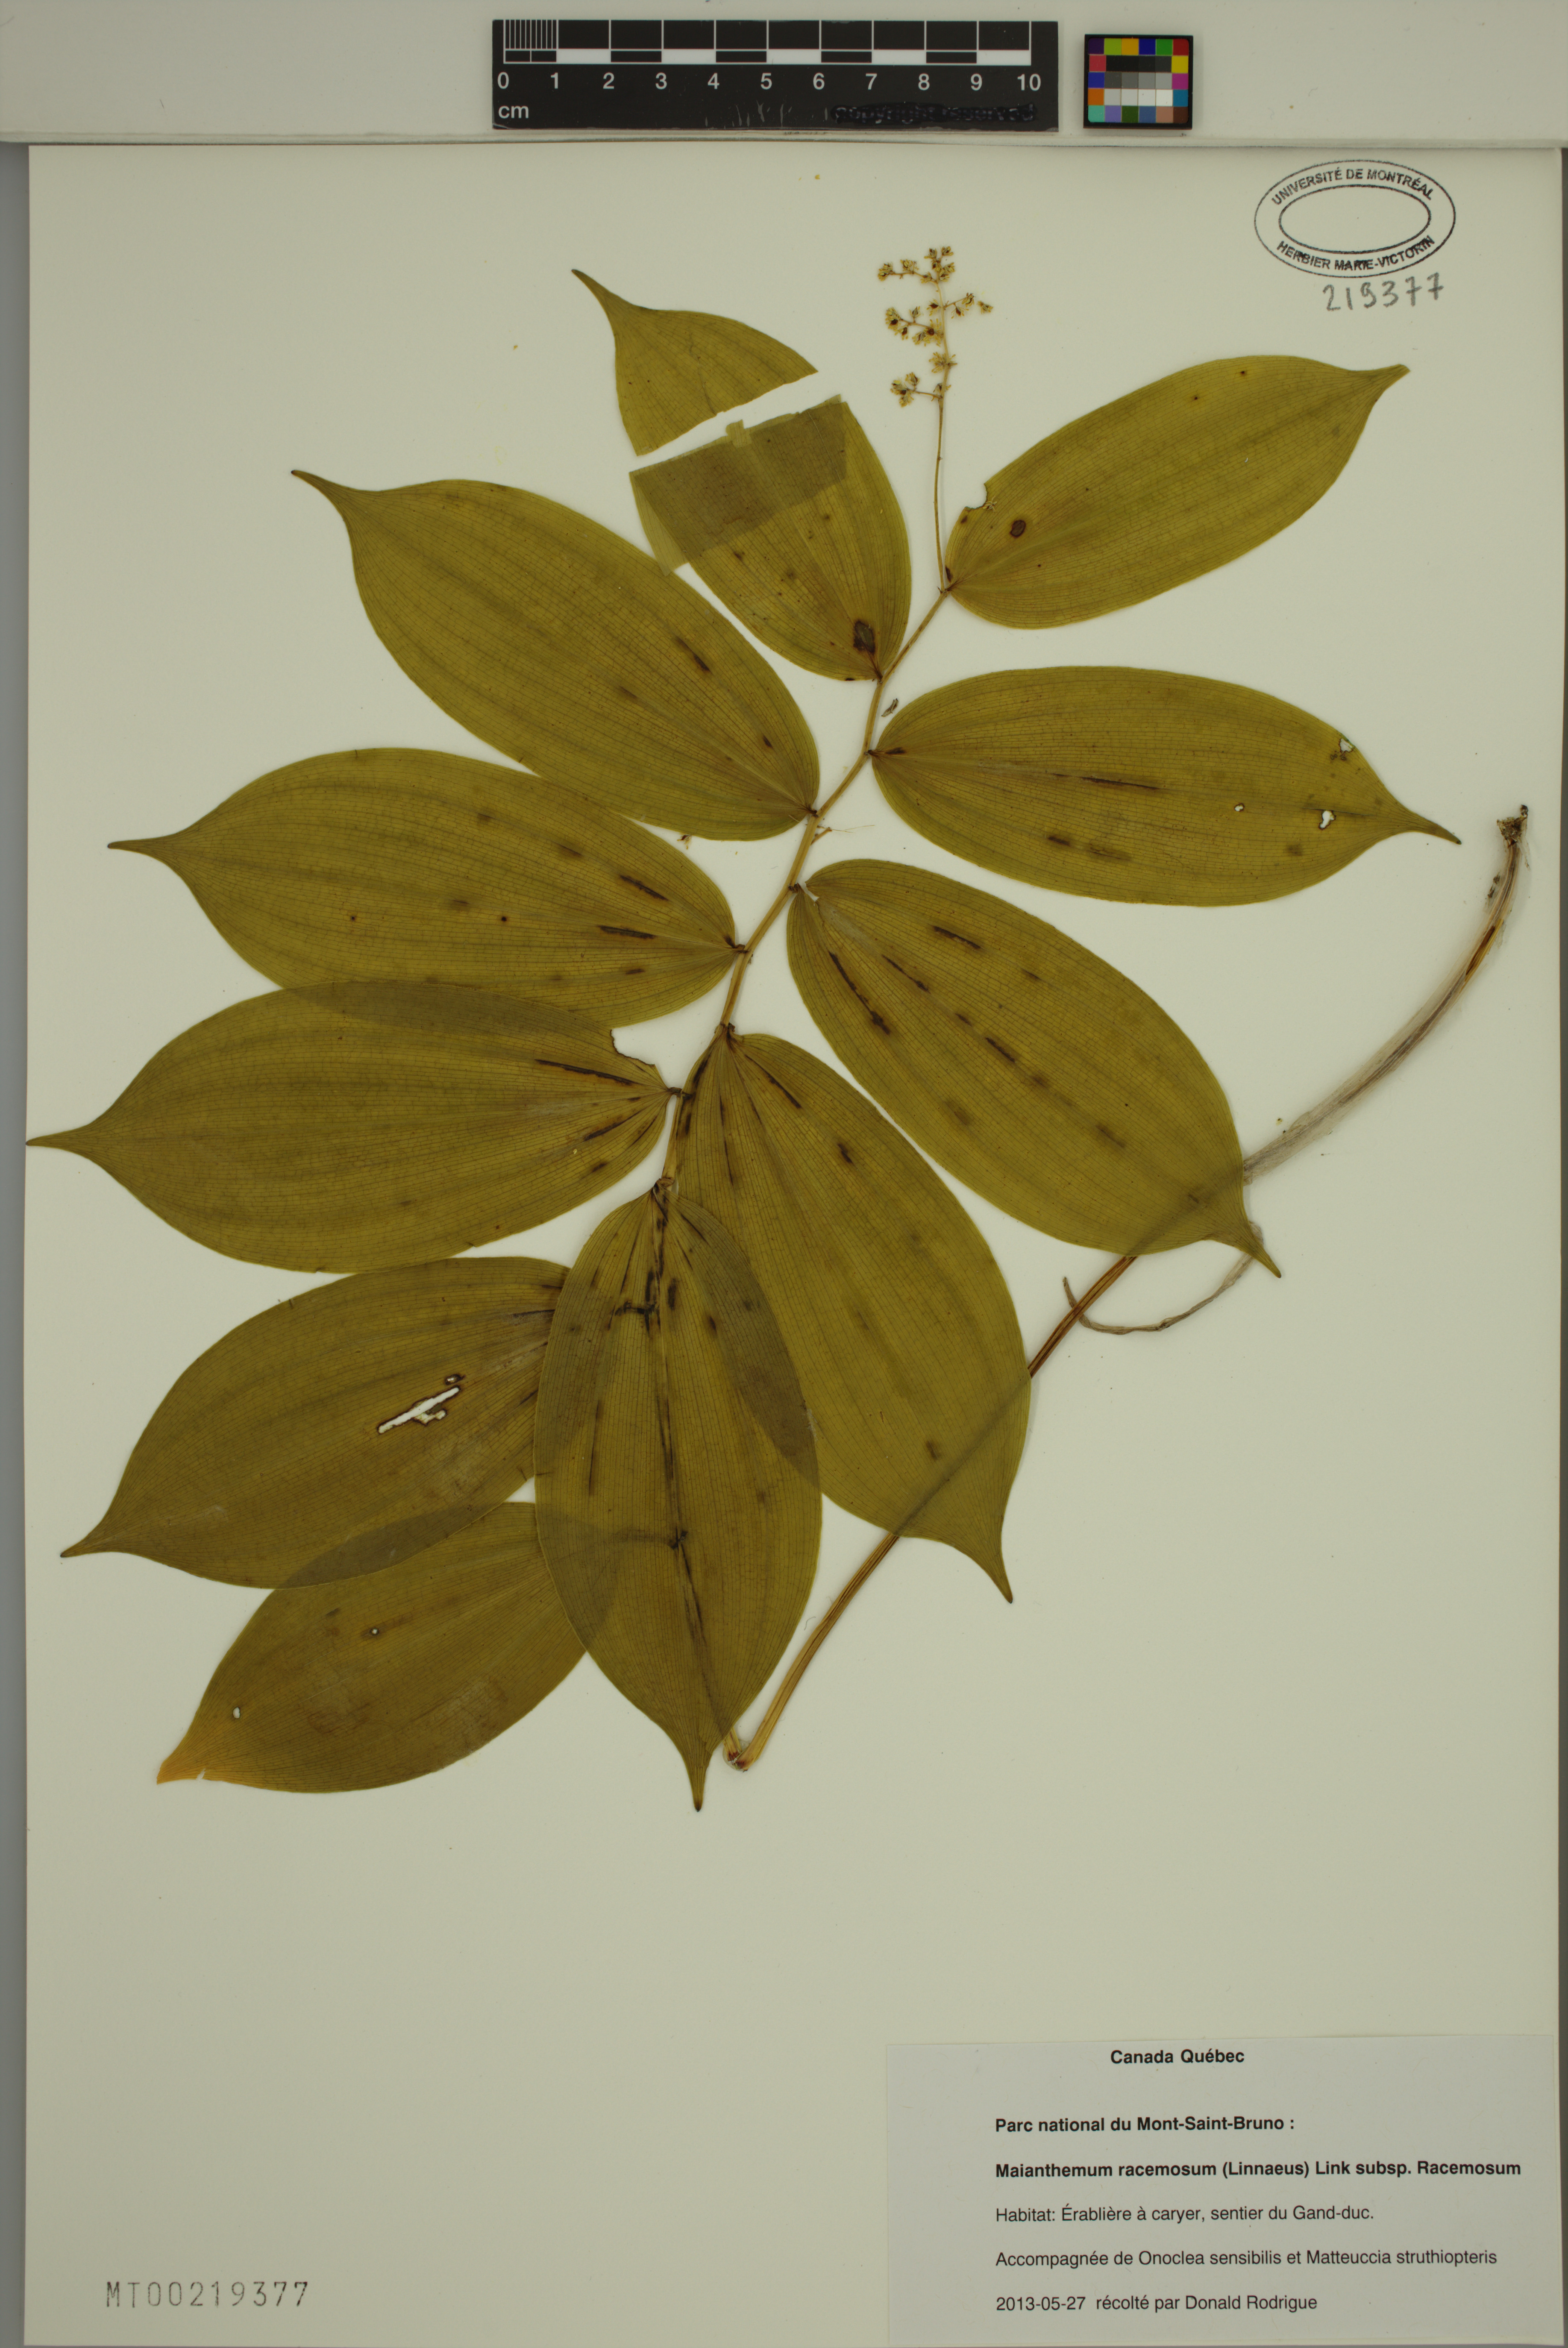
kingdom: Plantae
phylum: Tracheophyta
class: Liliopsida
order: Asparagales
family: Asparagaceae
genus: Maianthemum
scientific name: Maianthemum racemosum
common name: False spikenard
